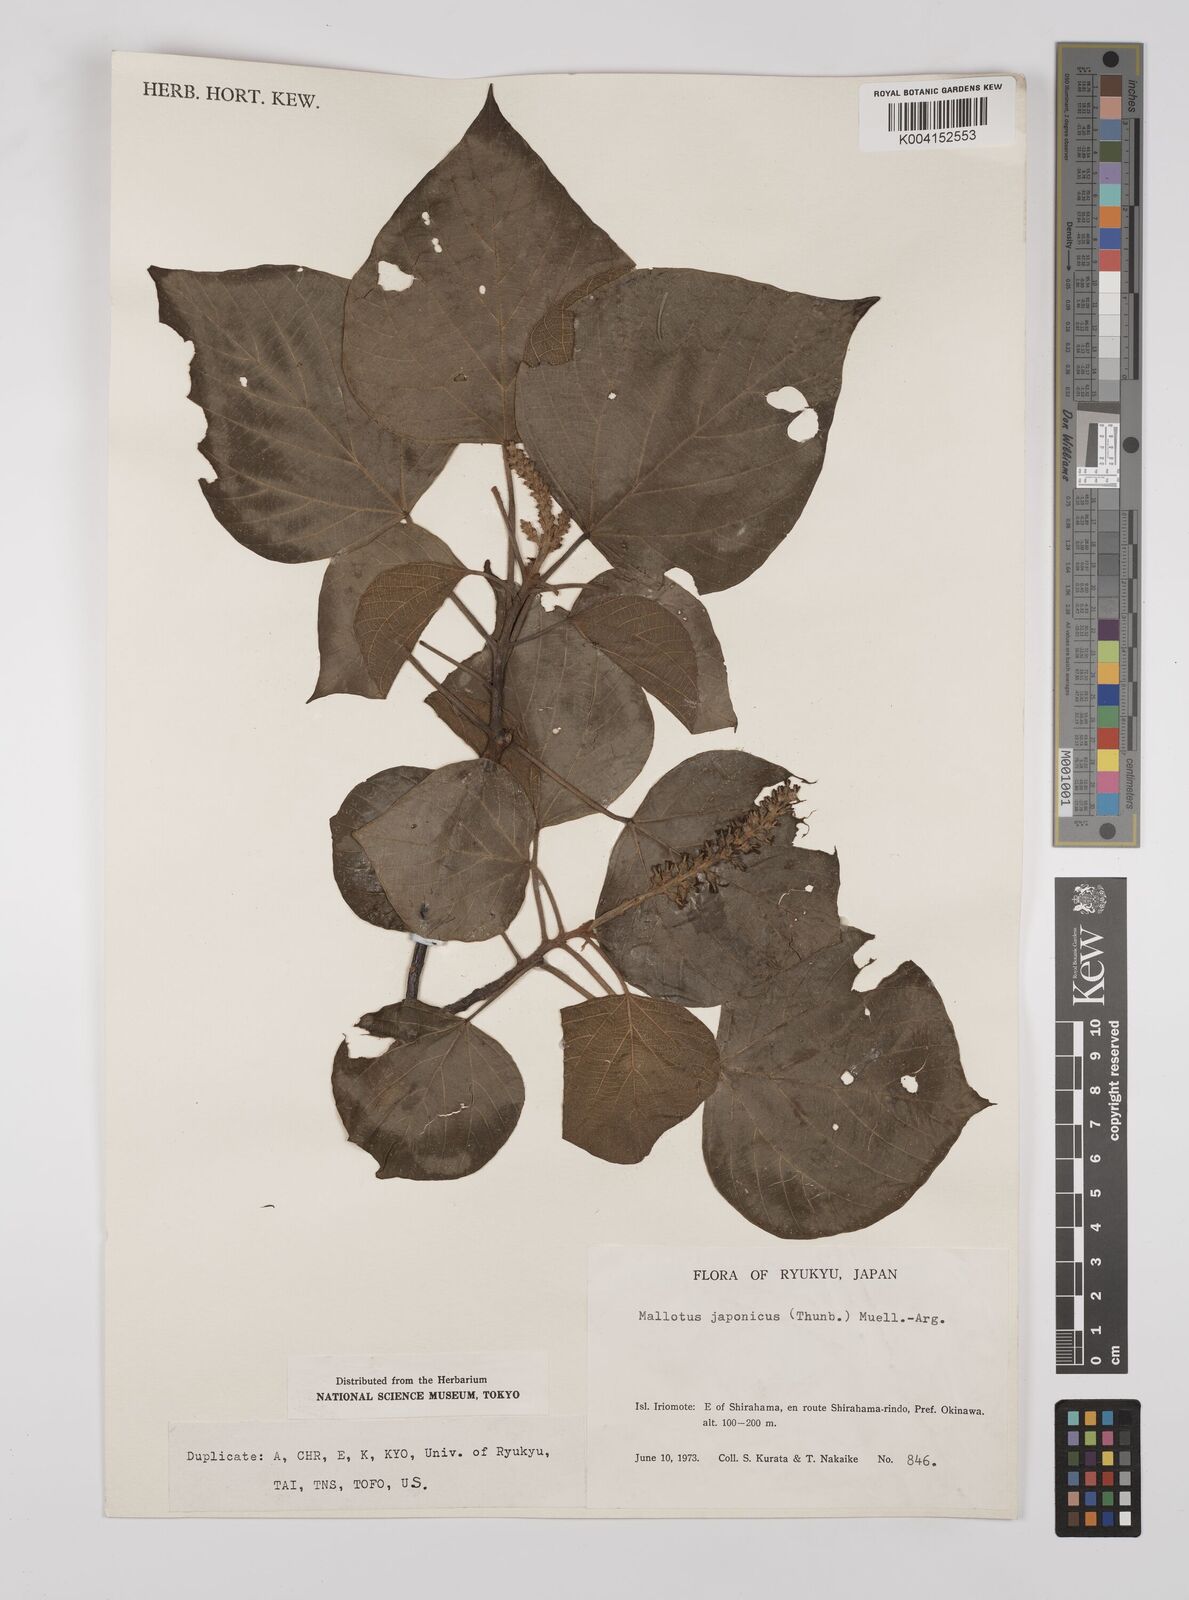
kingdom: Plantae
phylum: Tracheophyta
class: Magnoliopsida
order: Malpighiales
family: Euphorbiaceae
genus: Mallotus
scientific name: Mallotus japonicus
